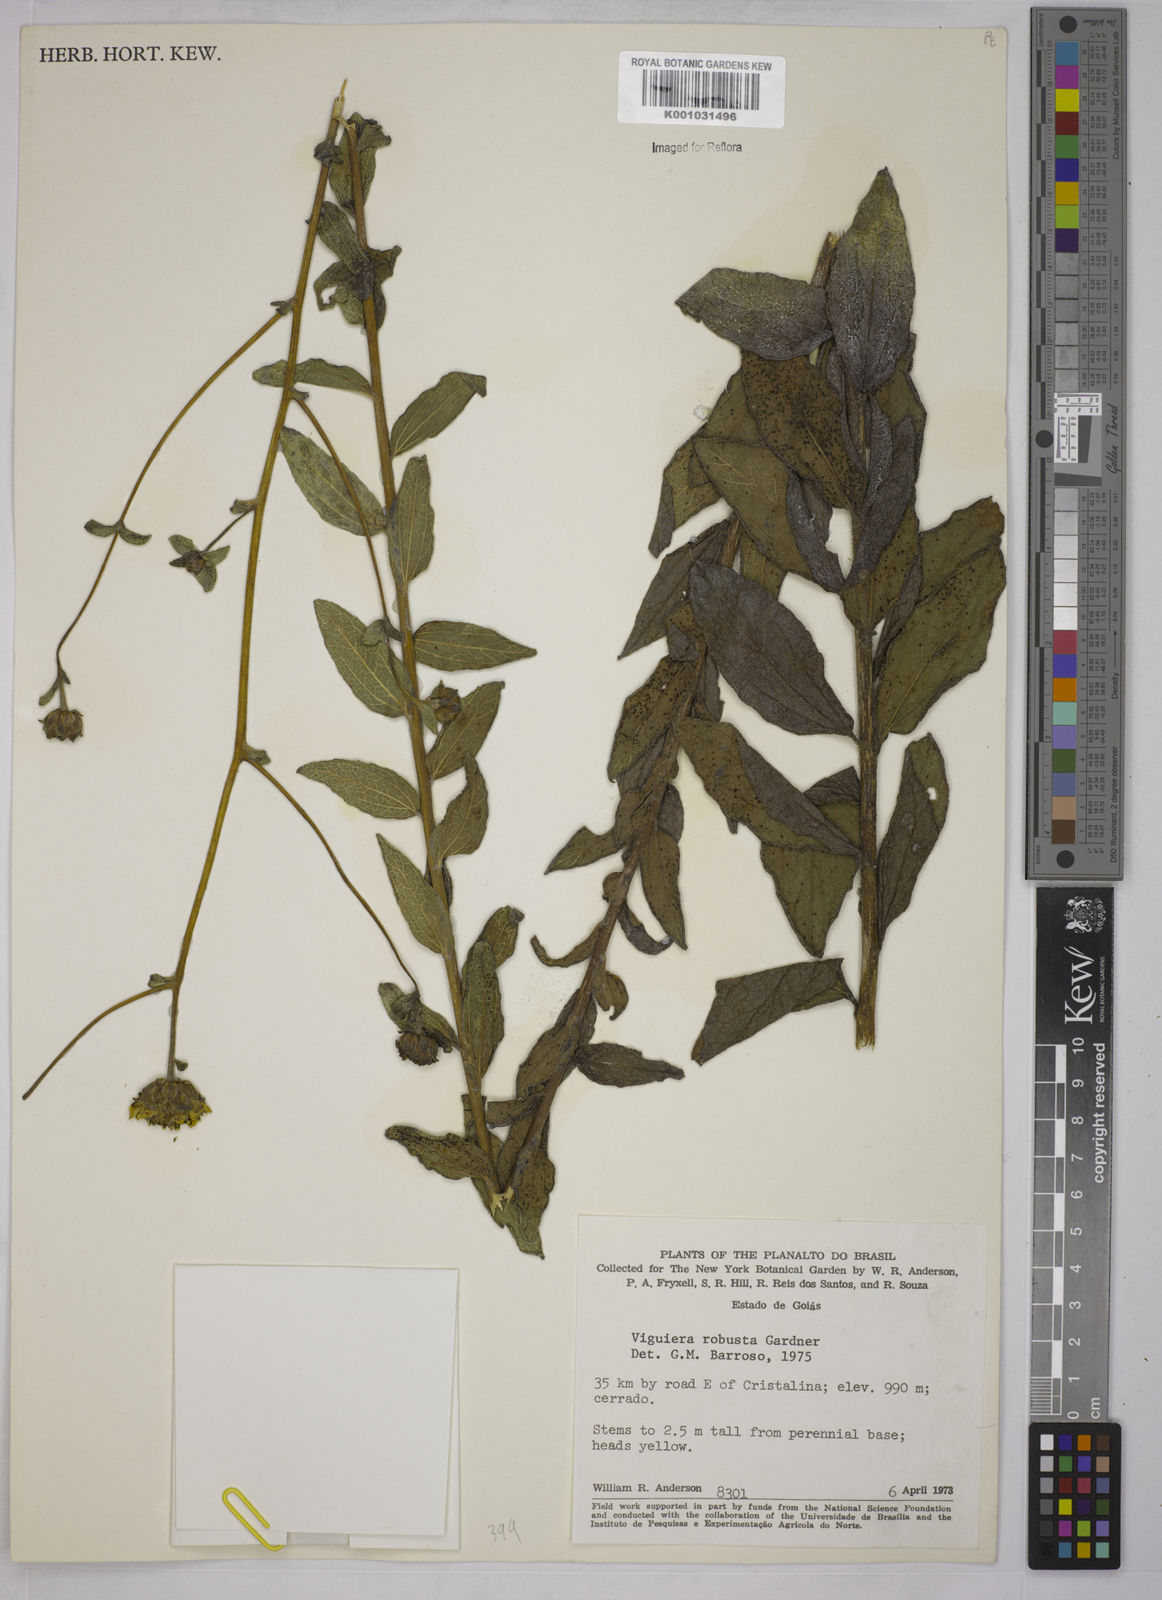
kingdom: Plantae
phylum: Tracheophyta
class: Magnoliopsida
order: Asterales
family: Asteraceae
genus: Aldama
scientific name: Aldama robusta
